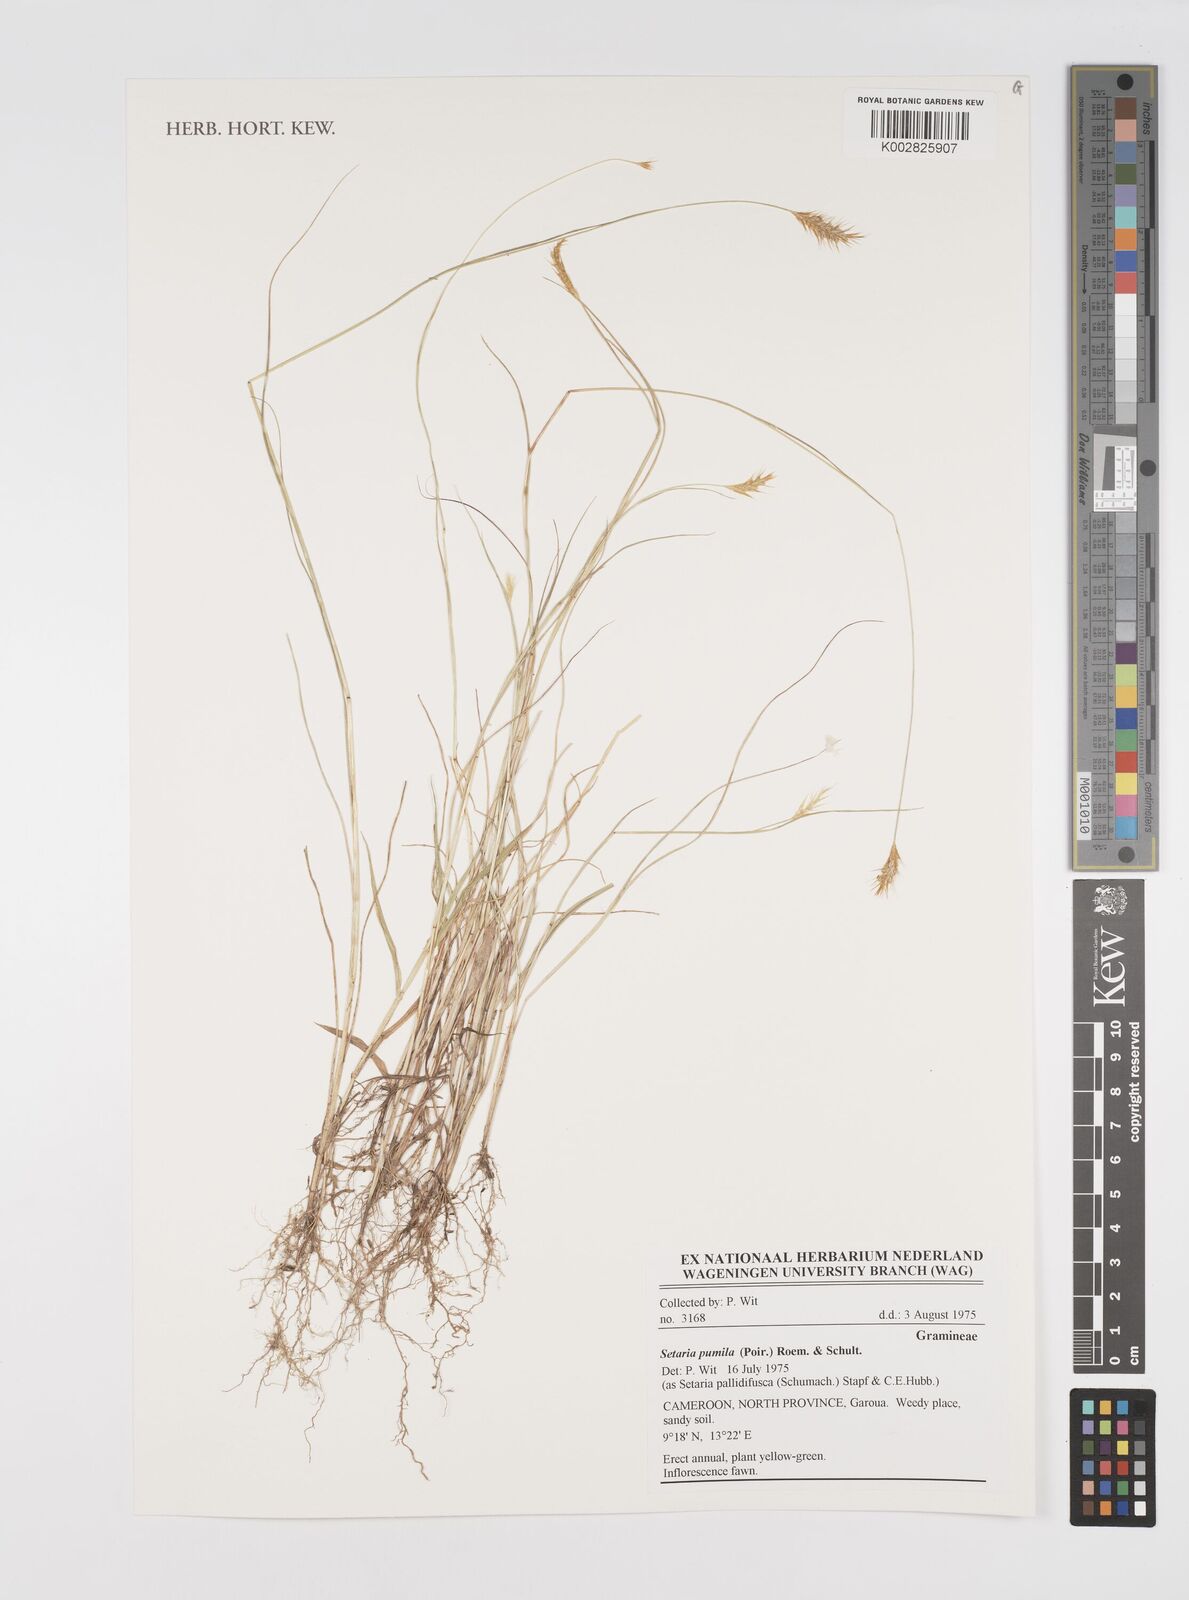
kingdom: Plantae
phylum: Tracheophyta
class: Liliopsida
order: Poales
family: Poaceae
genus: Setaria
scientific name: Setaria pumila
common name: Yellow bristle-grass
